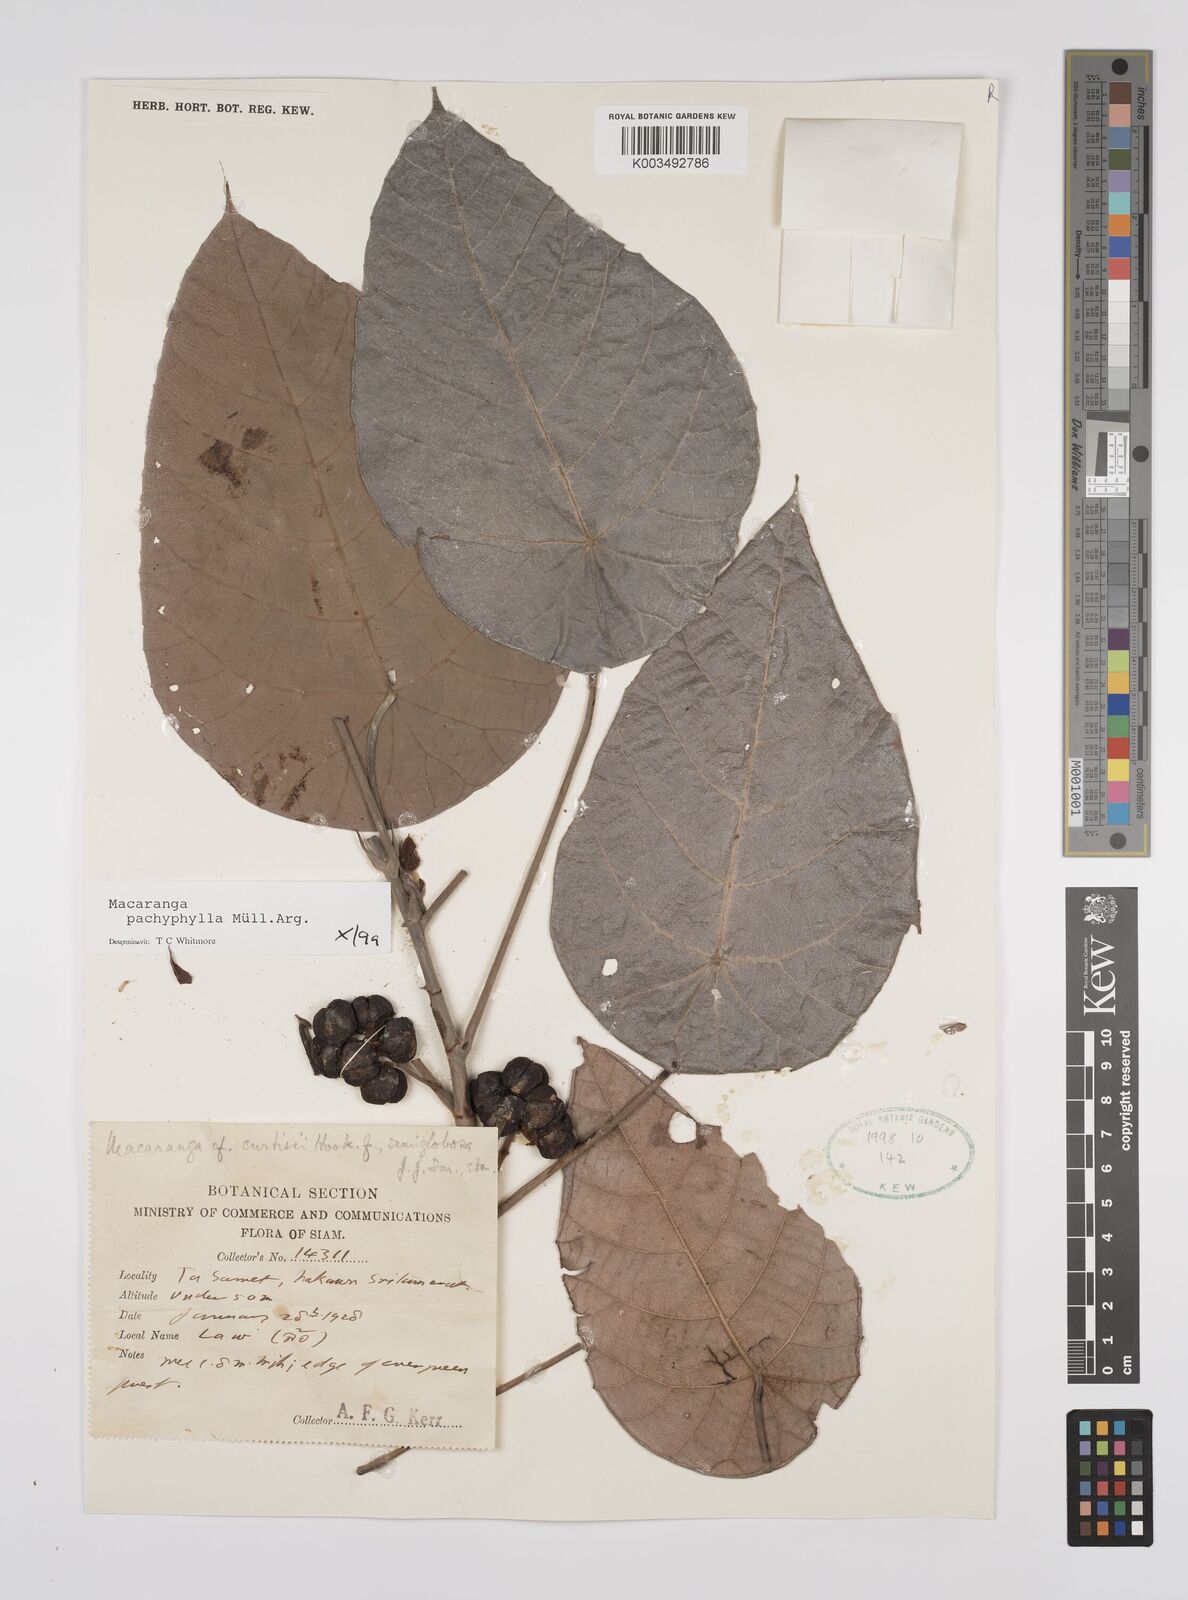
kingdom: Plantae
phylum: Tracheophyta
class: Magnoliopsida
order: Malpighiales
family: Euphorbiaceae
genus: Macaranga
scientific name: Macaranga pachyphylla
